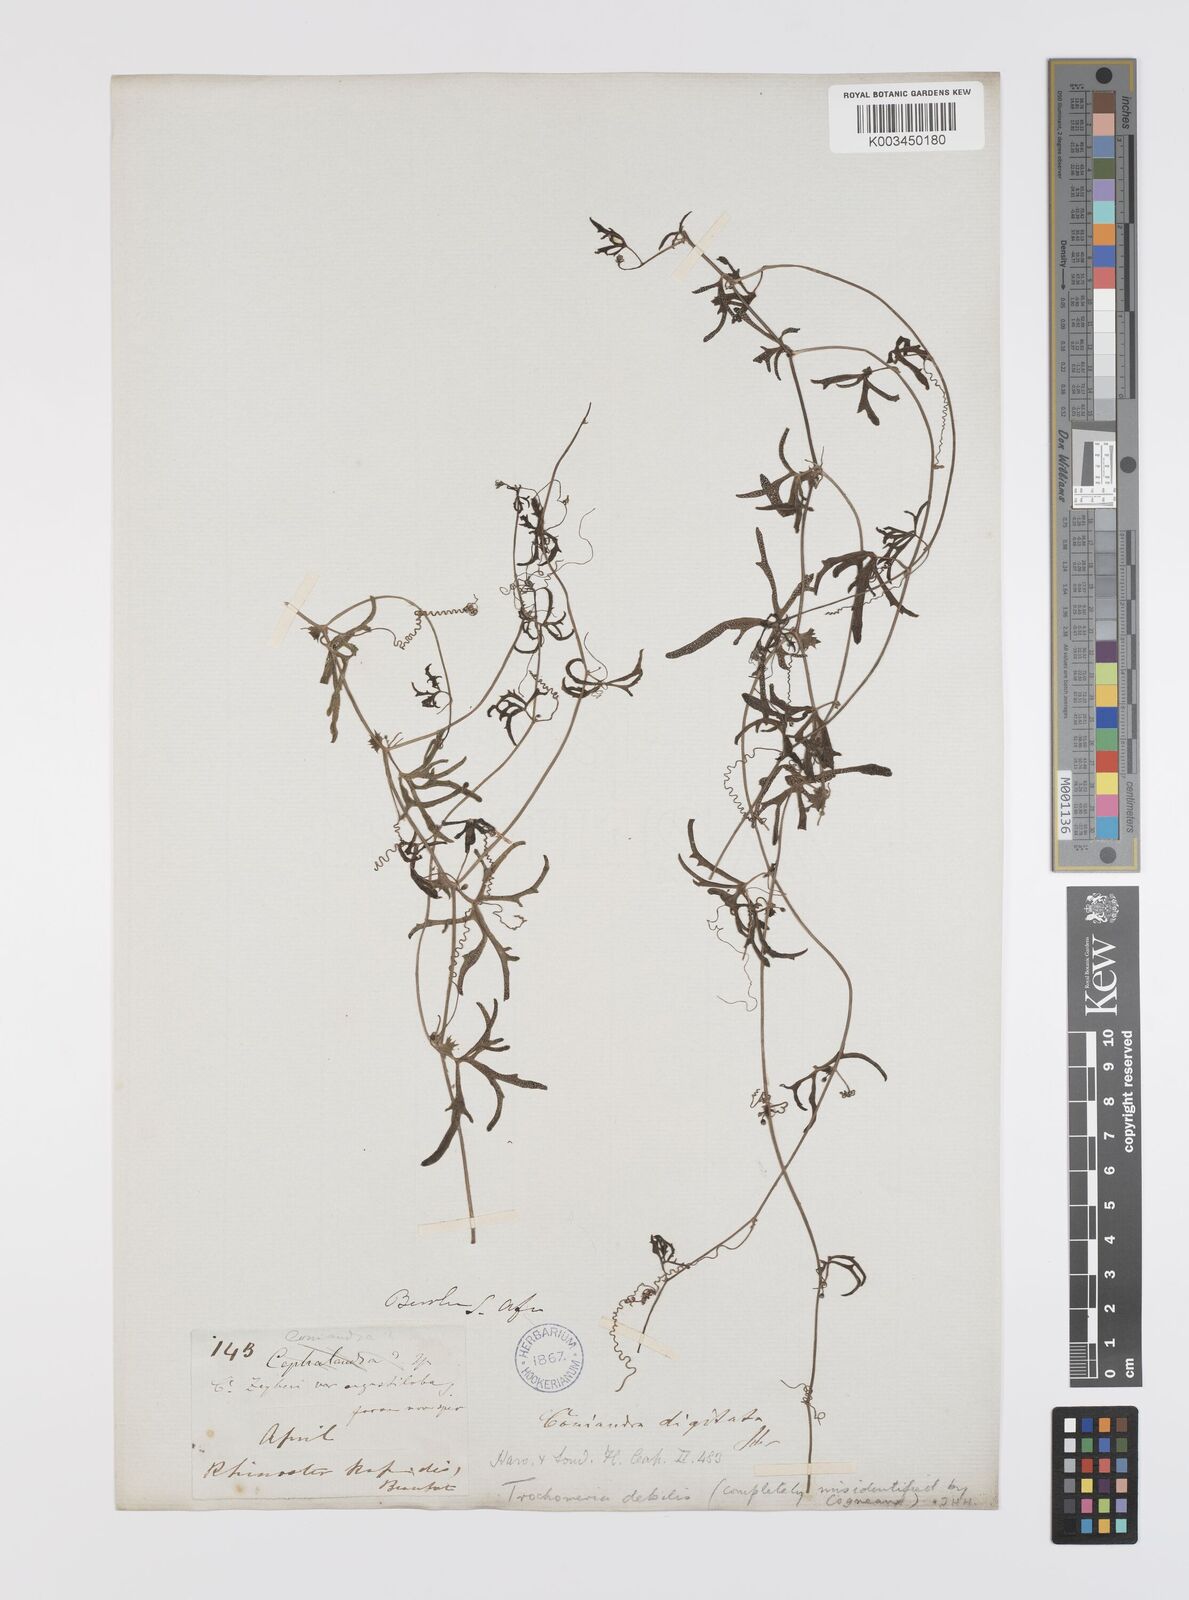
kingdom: Plantae
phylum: Tracheophyta
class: Magnoliopsida
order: Cucurbitales
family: Cucurbitaceae
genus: Trochomeria
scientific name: Trochomeria debilis
